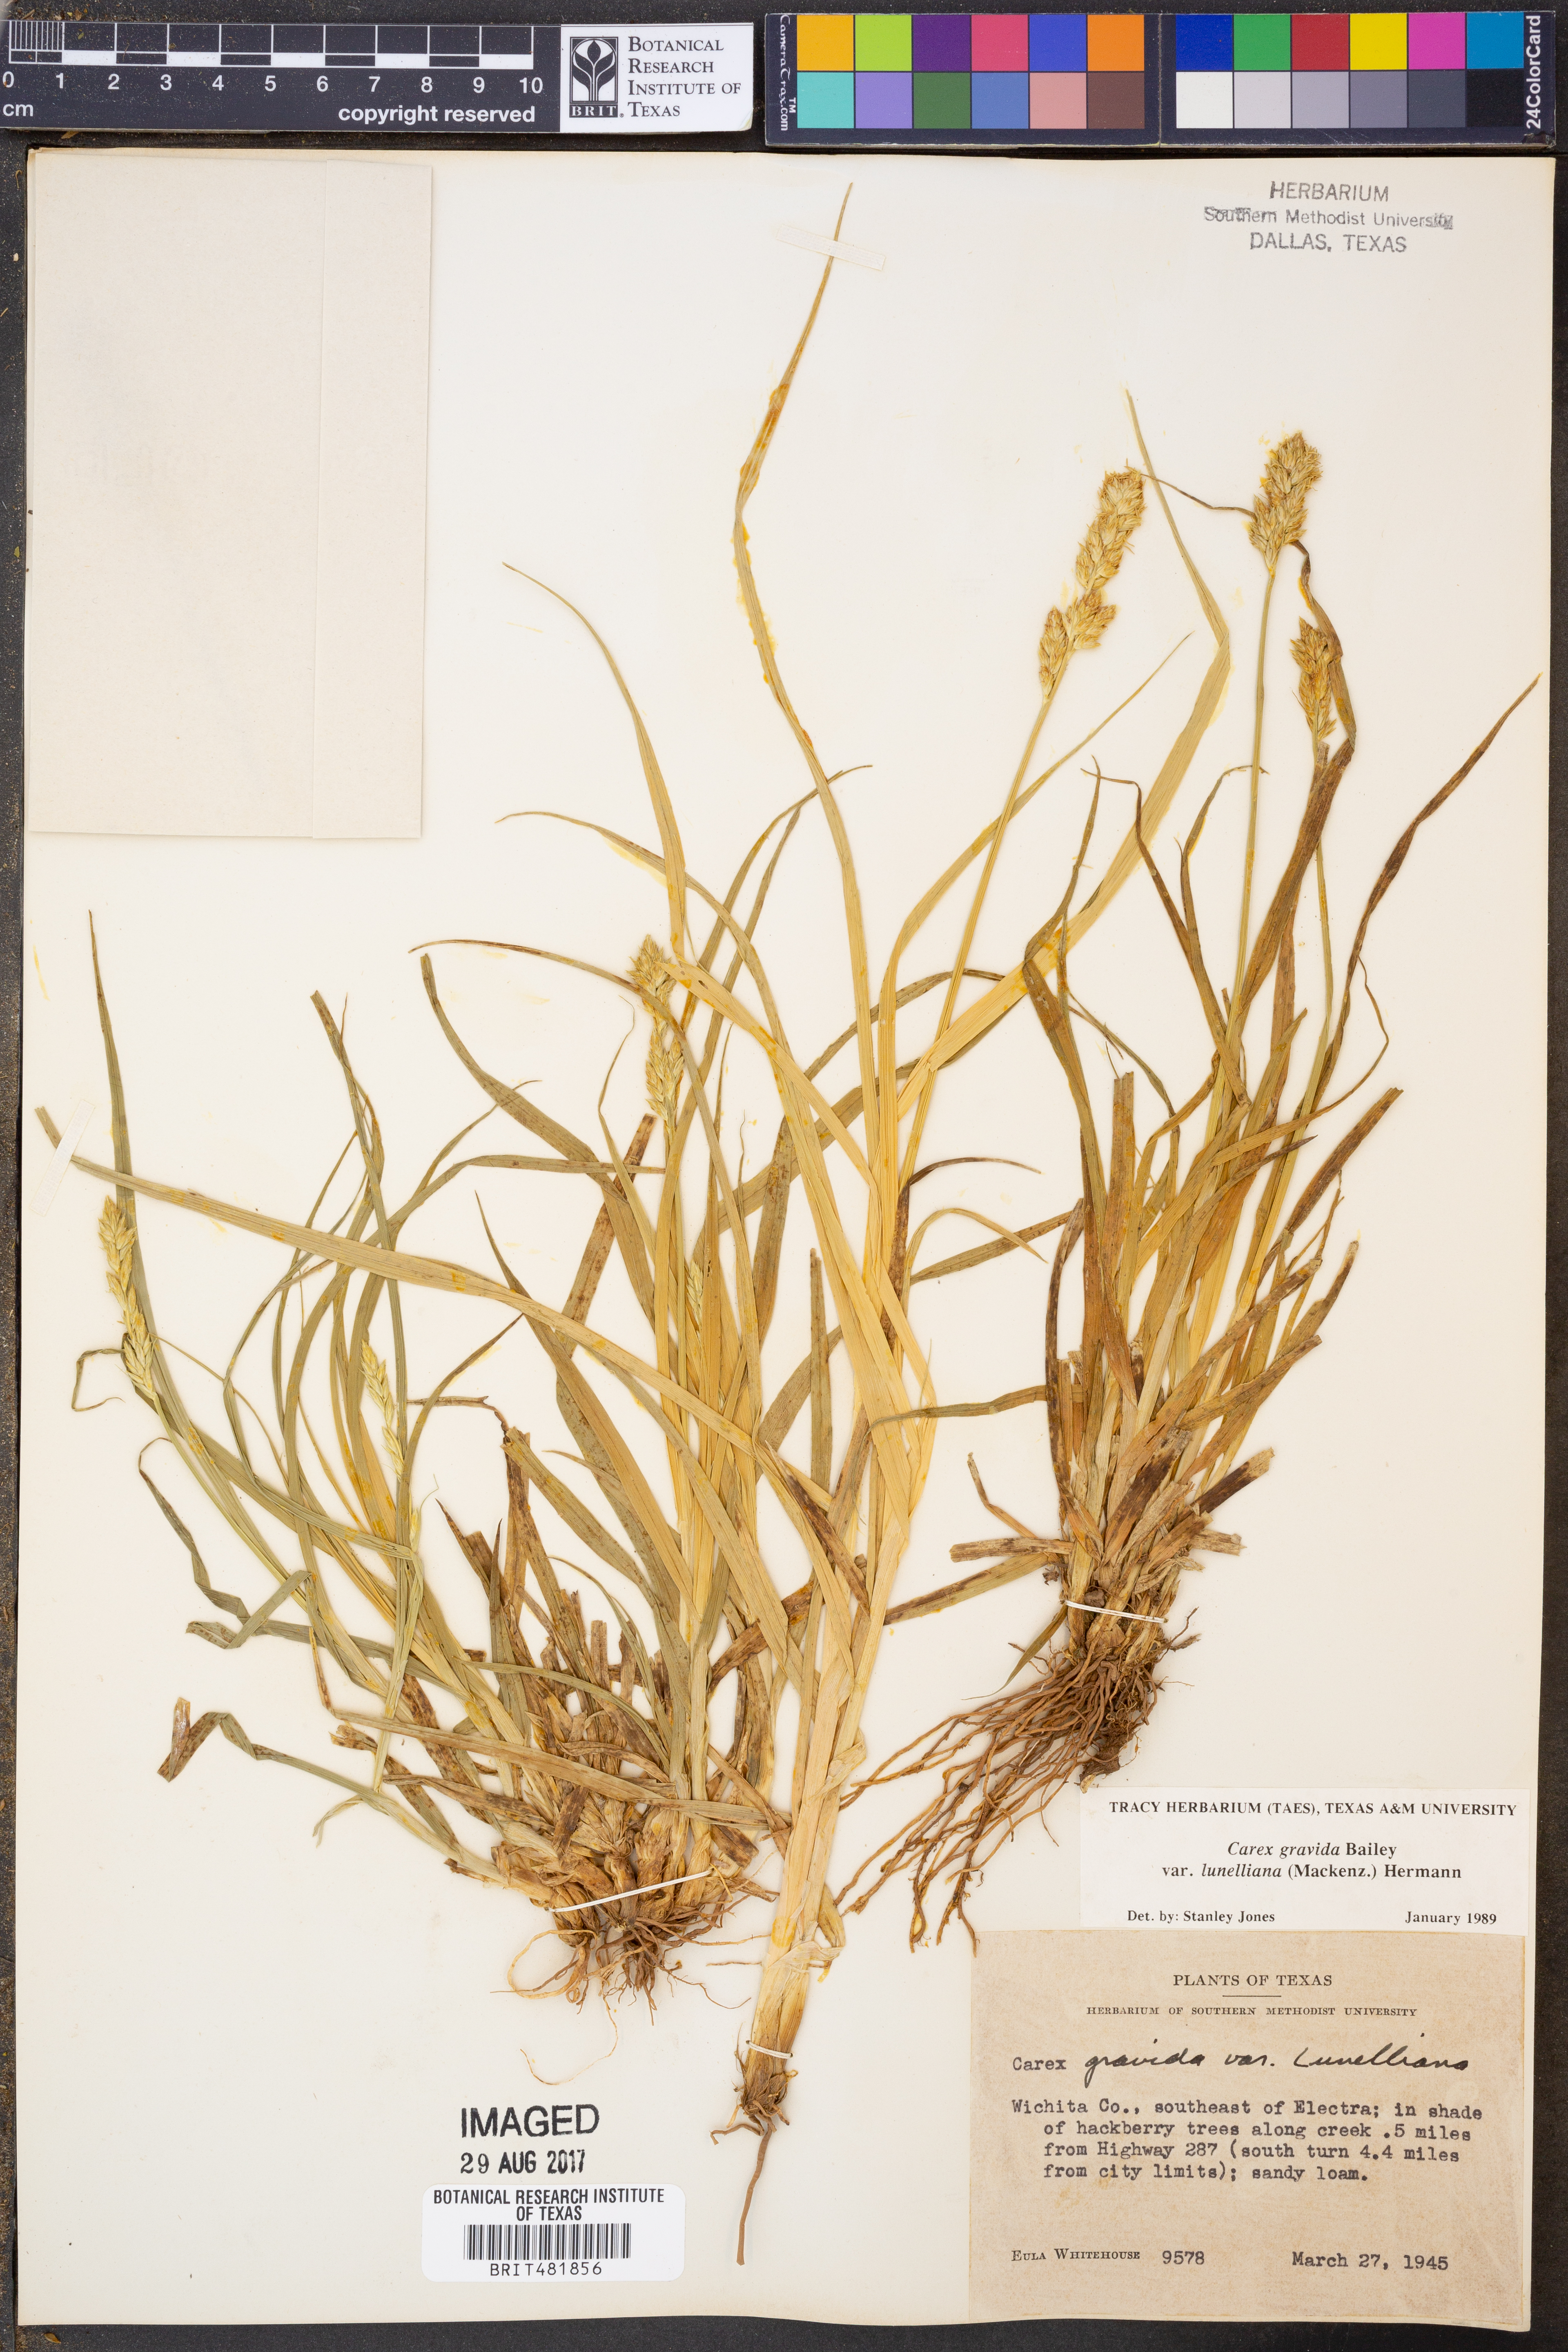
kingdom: Plantae
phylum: Tracheophyta
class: Liliopsida
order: Poales
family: Cyperaceae
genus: Carex
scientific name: Carex gravida
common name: Heavy sedge
